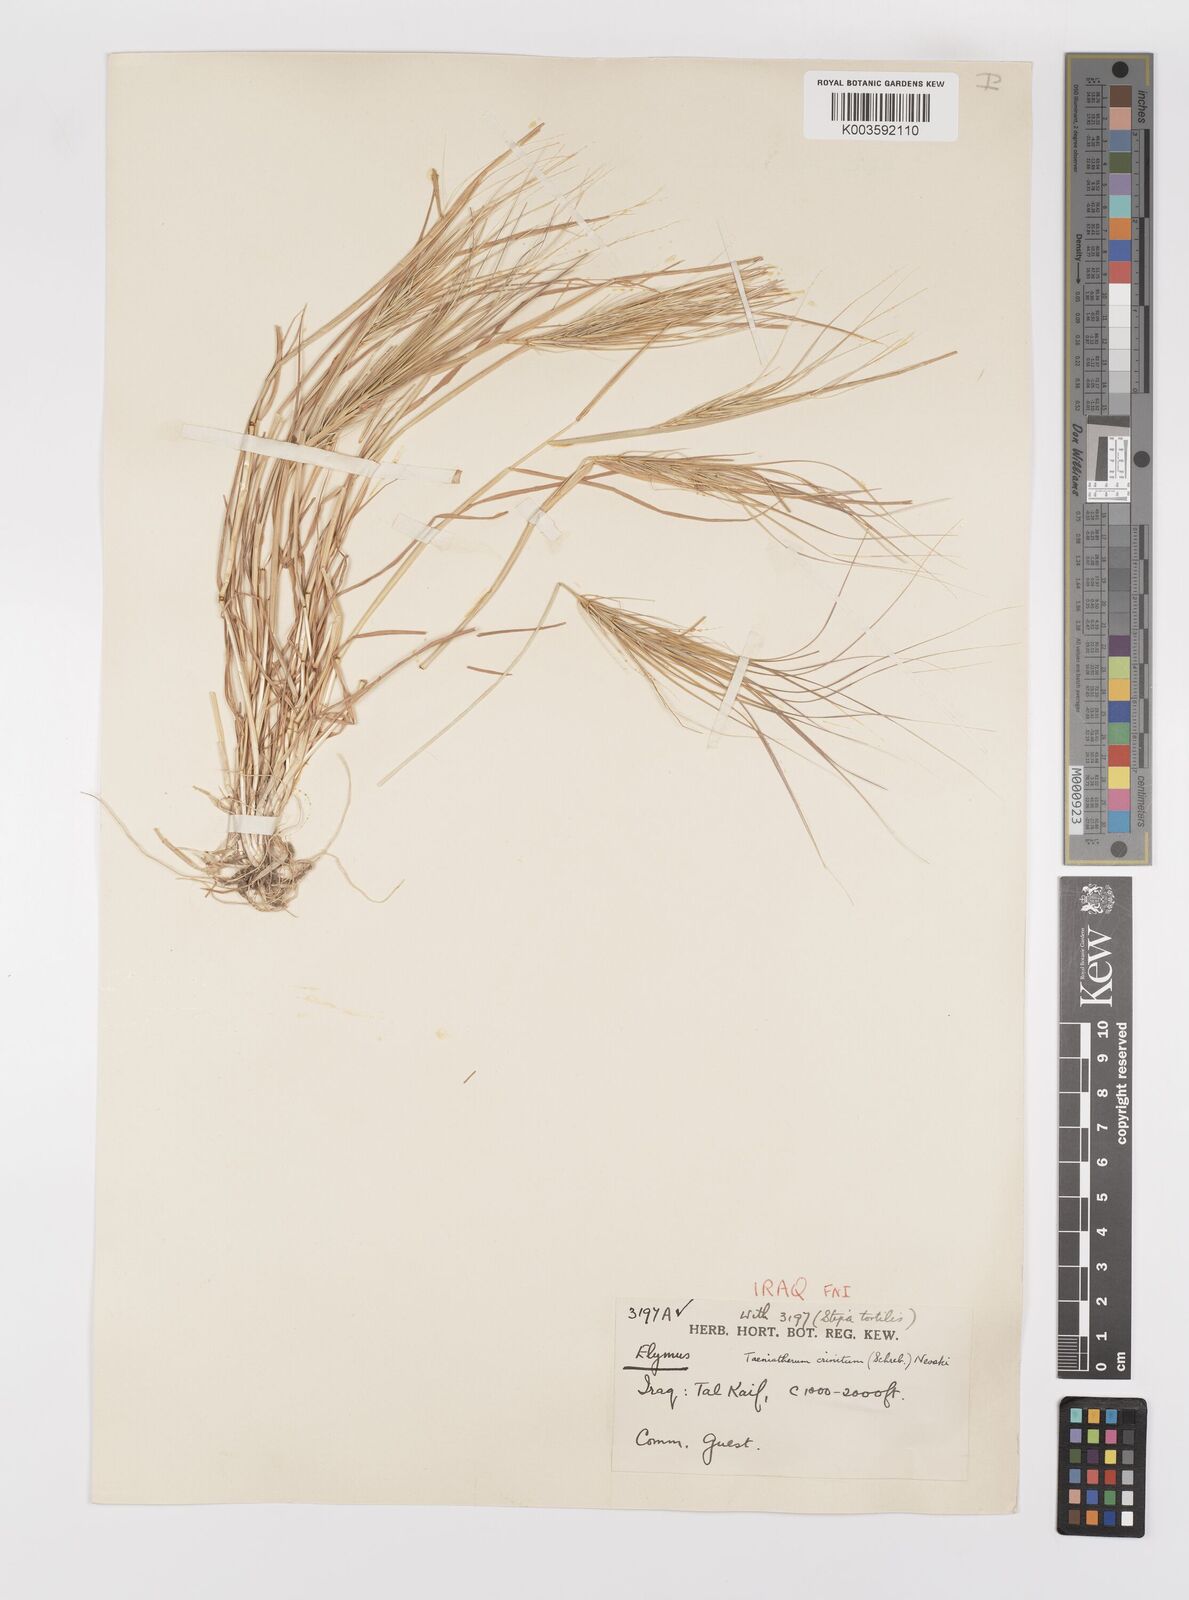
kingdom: Plantae
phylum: Tracheophyta
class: Liliopsida
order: Poales
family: Poaceae
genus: Taeniatherum
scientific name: Taeniatherum caput-medusae
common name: Medusahead
